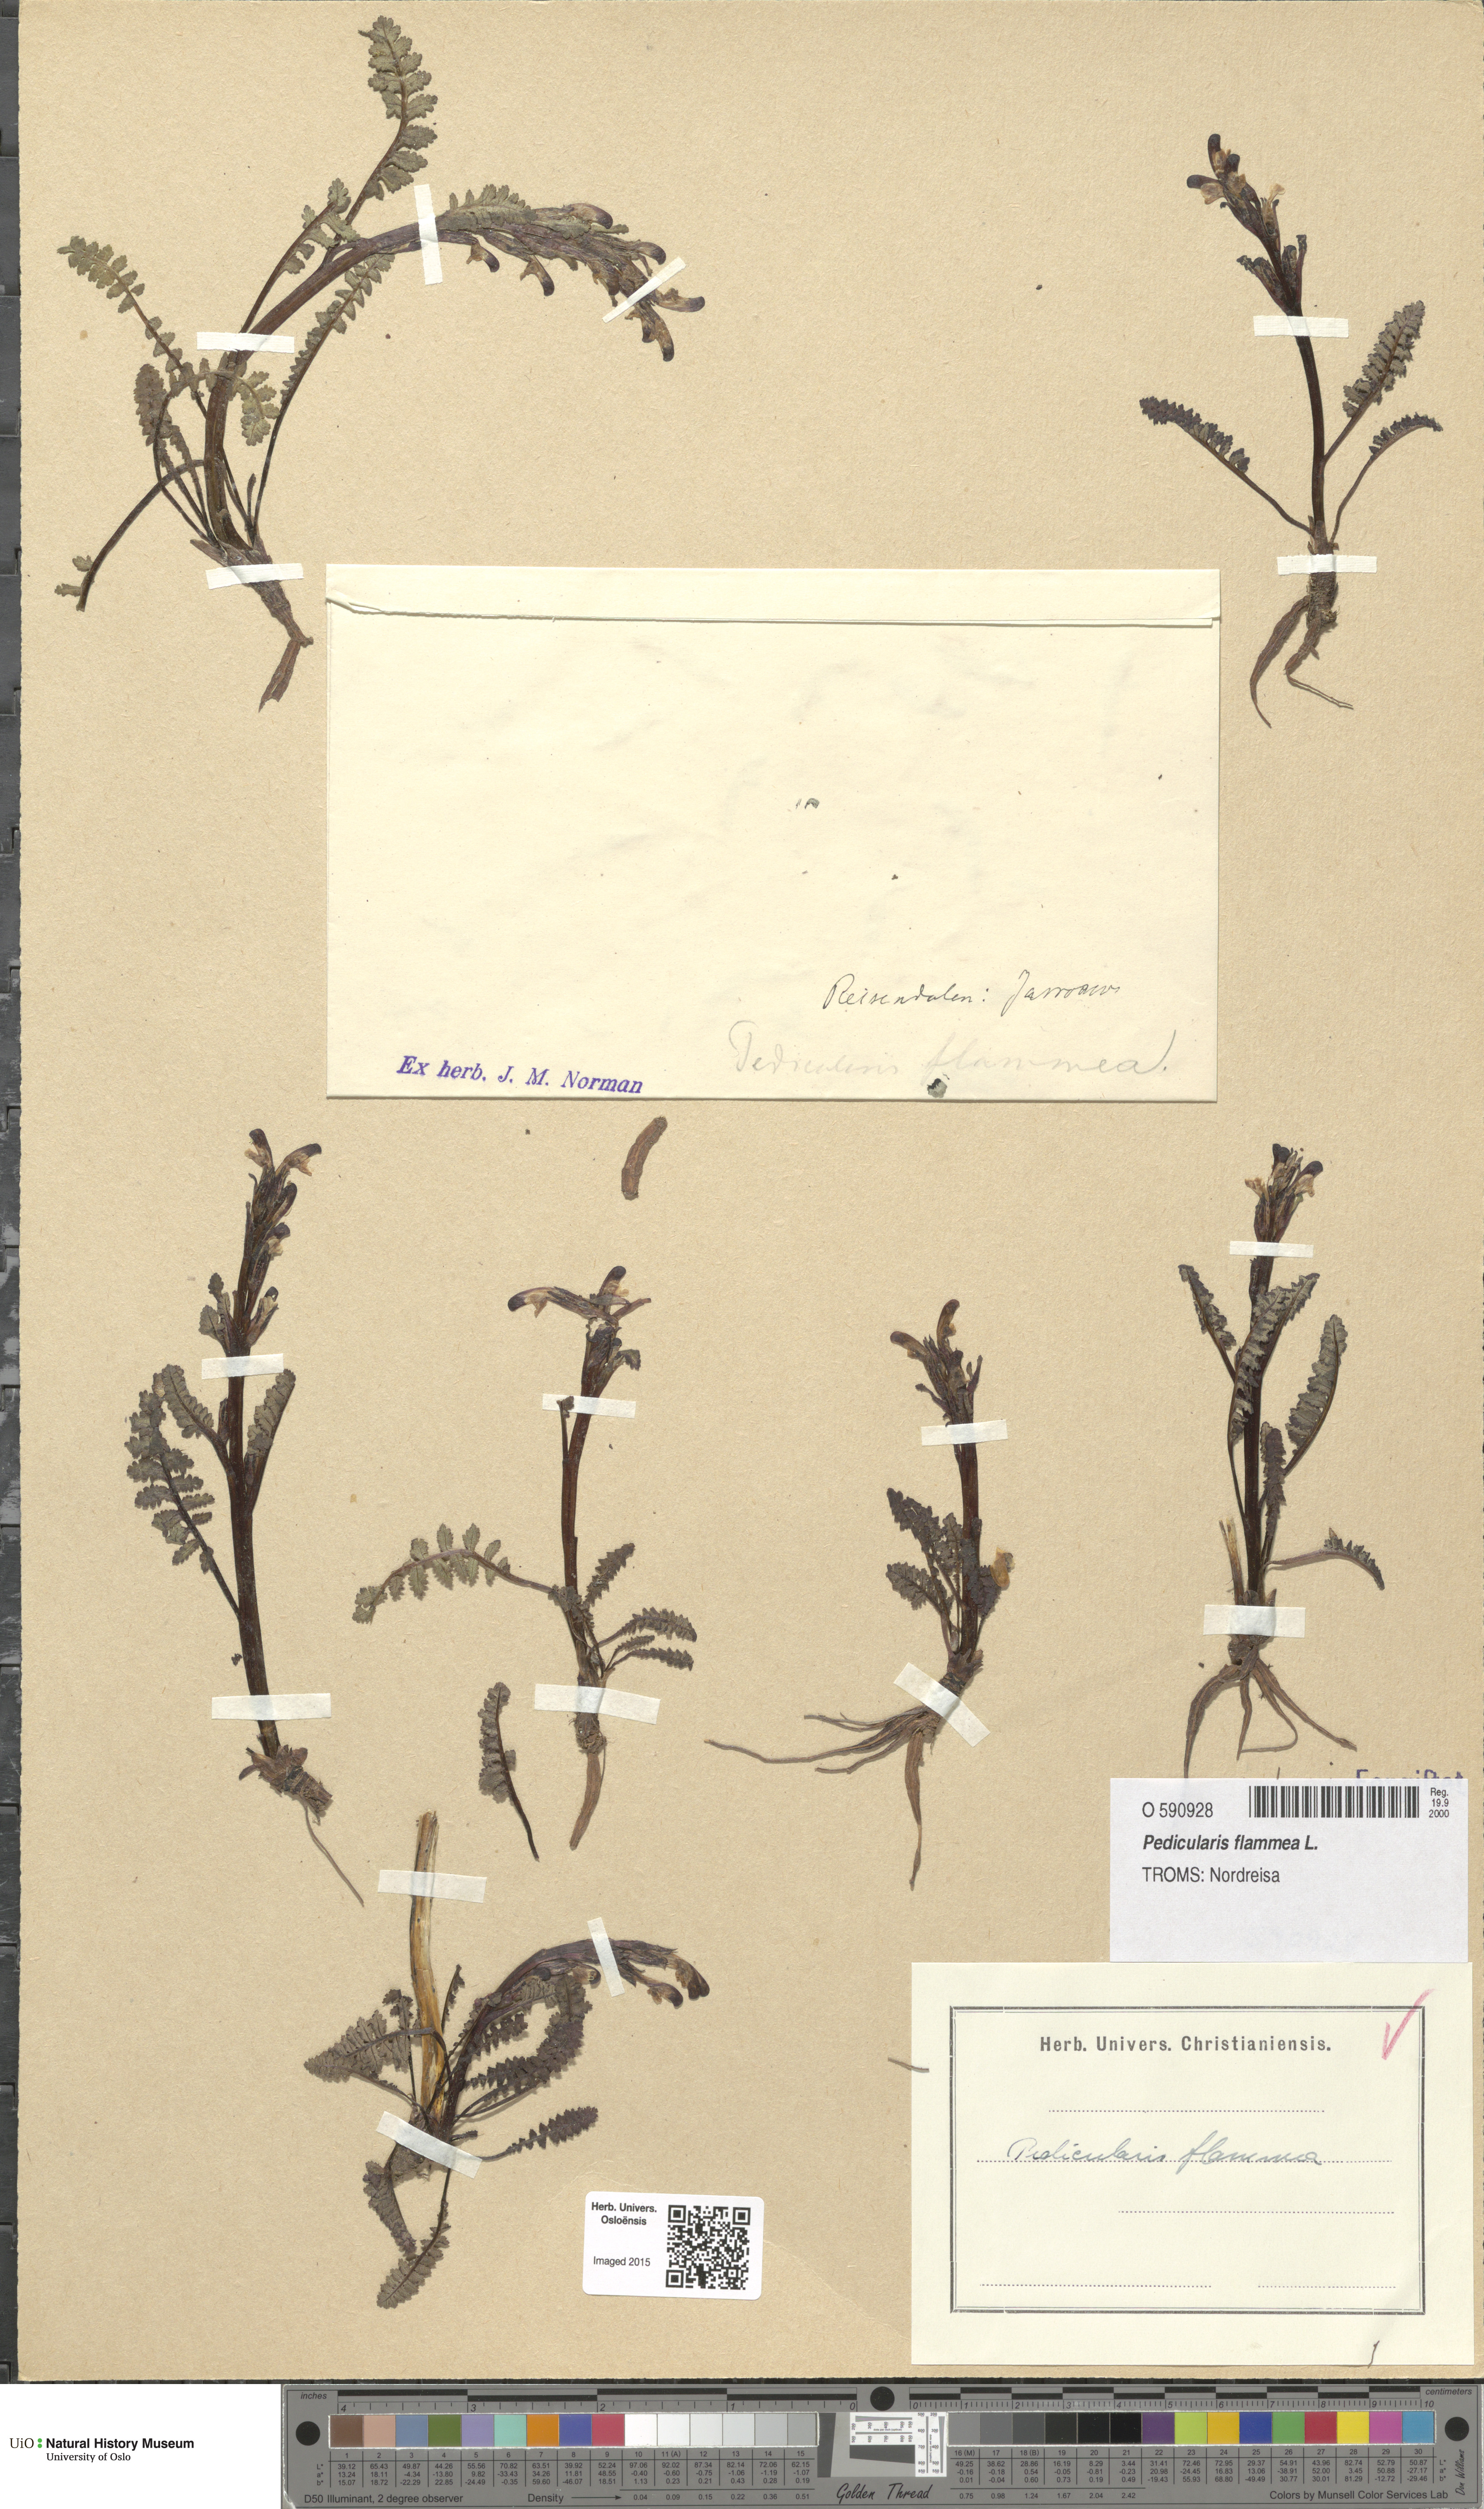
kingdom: Plantae
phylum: Tracheophyta
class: Magnoliopsida
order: Lamiales
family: Orobanchaceae
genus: Pedicularis
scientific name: Pedicularis flammea
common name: Flame-coloured lousewort
